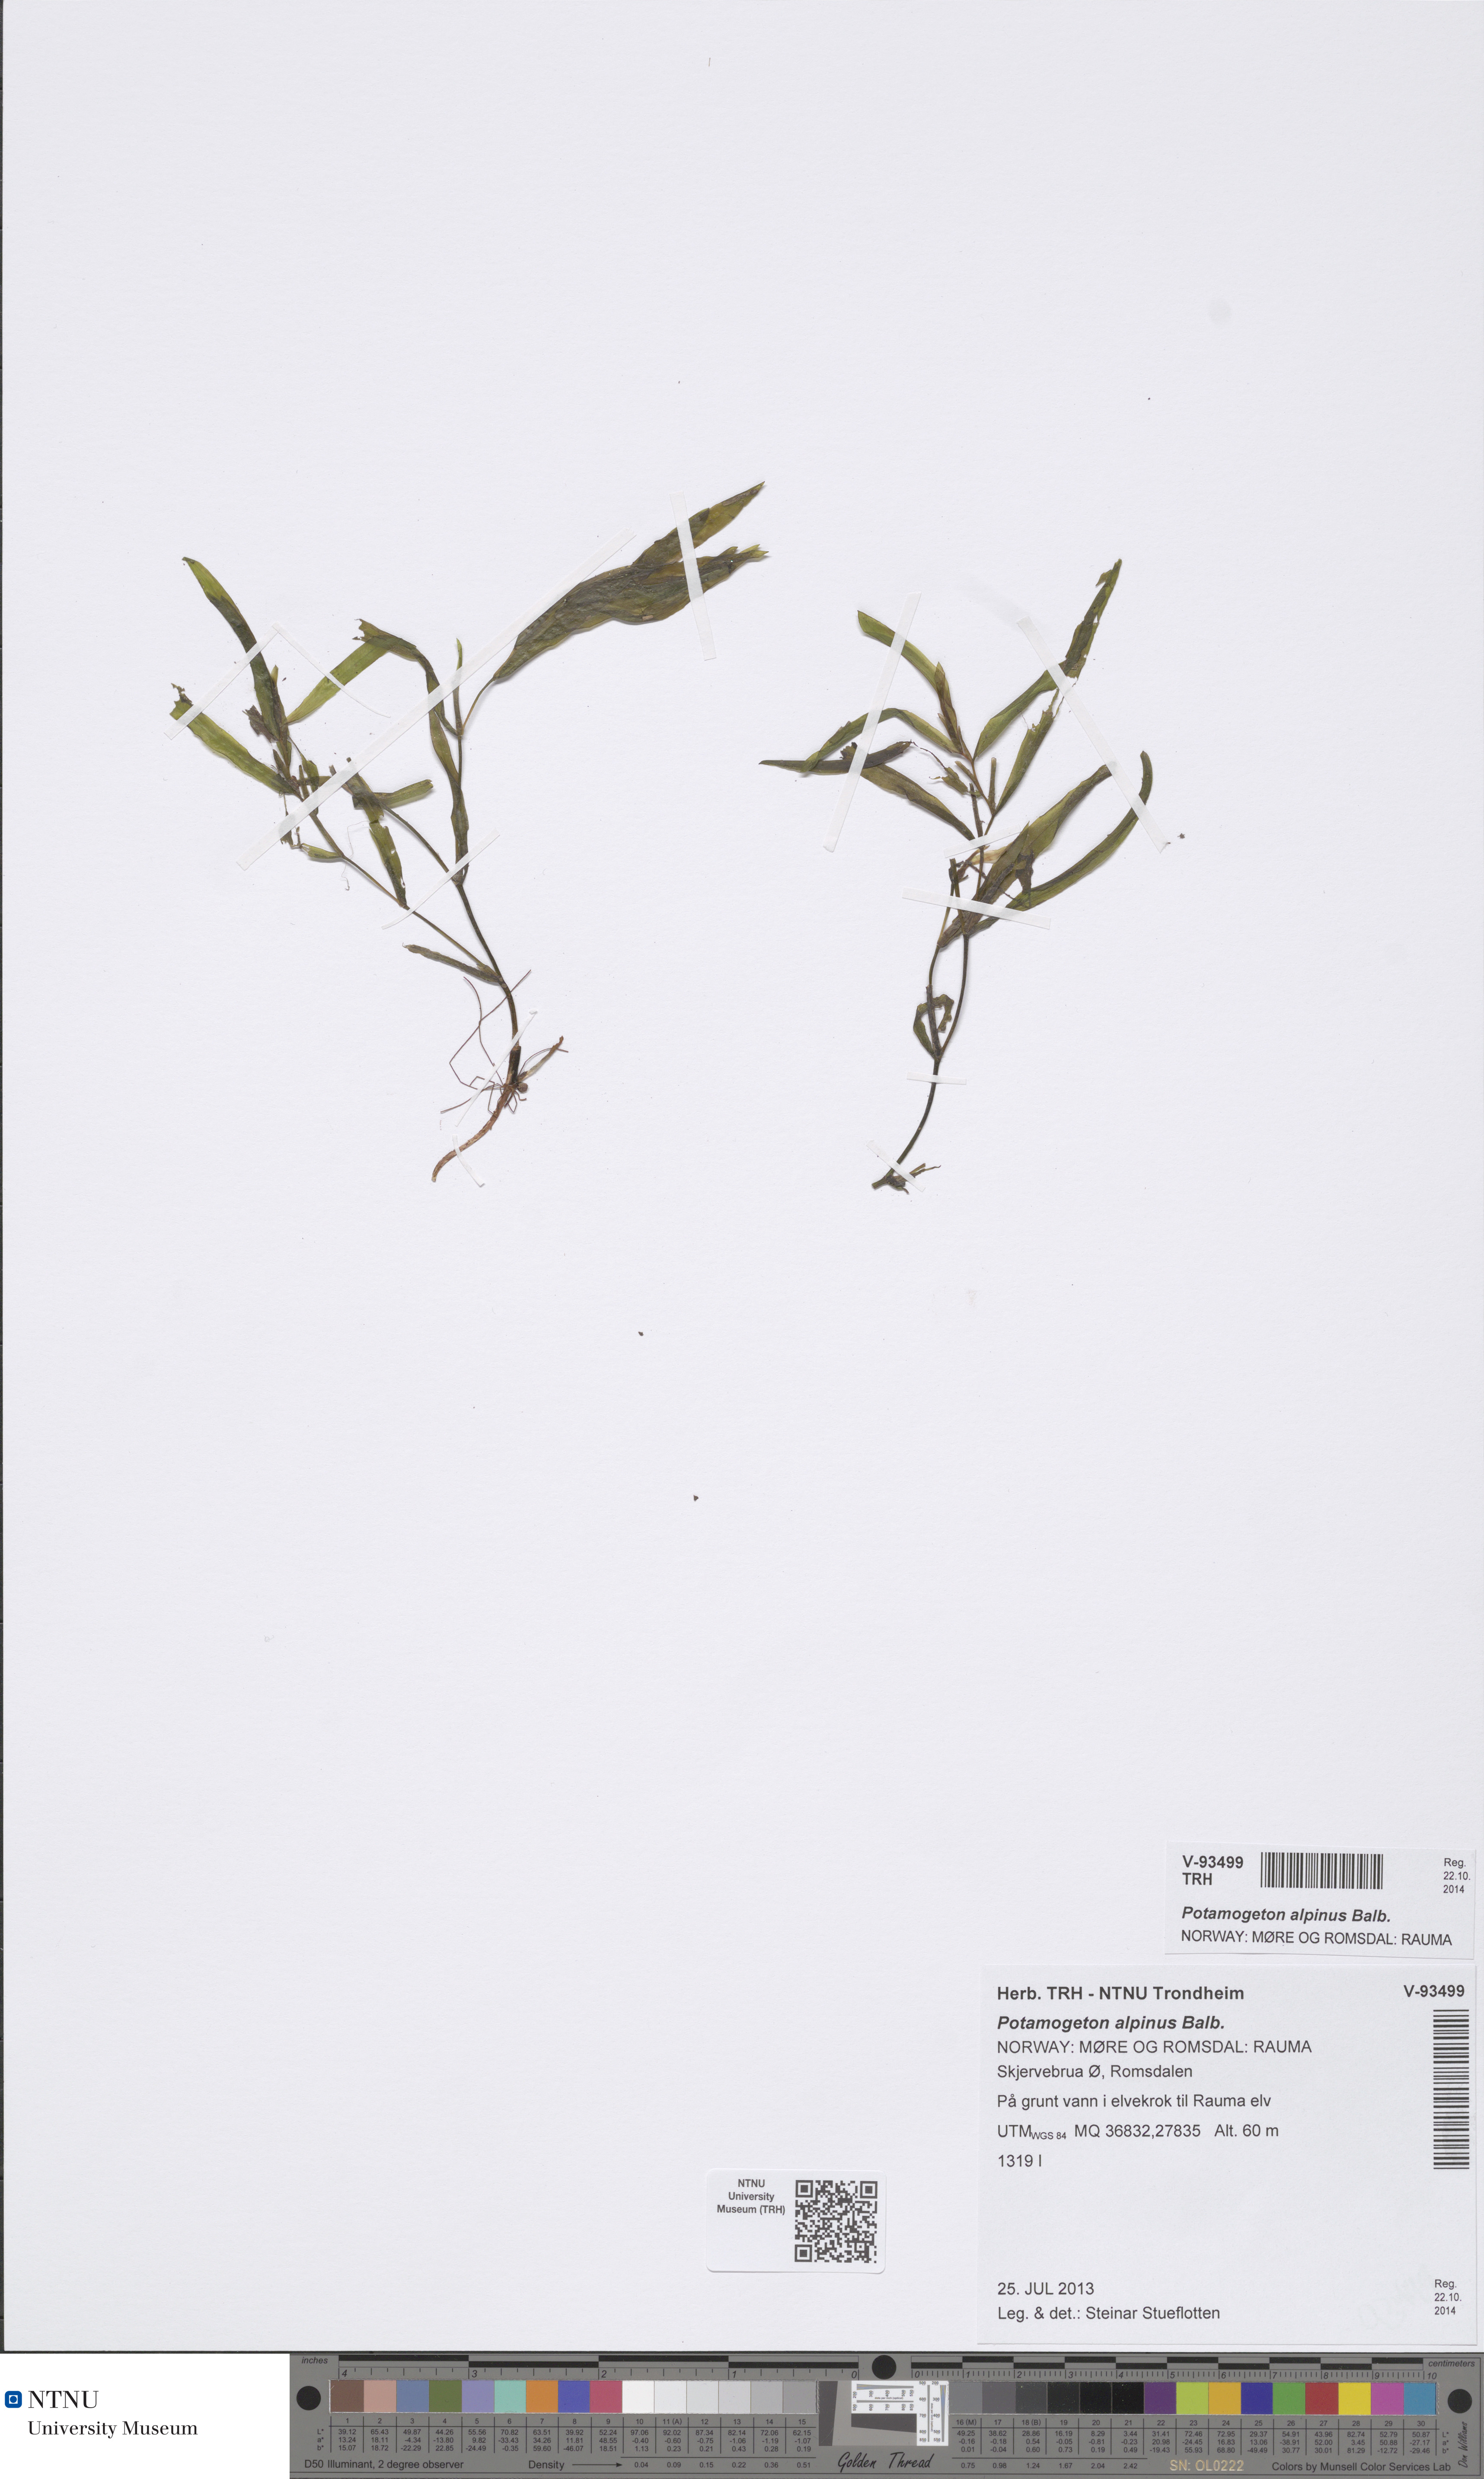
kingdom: Plantae
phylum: Tracheophyta
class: Liliopsida
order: Alismatales
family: Potamogetonaceae
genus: Potamogeton
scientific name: Potamogeton gramineus
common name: Various-leaved pondweed
